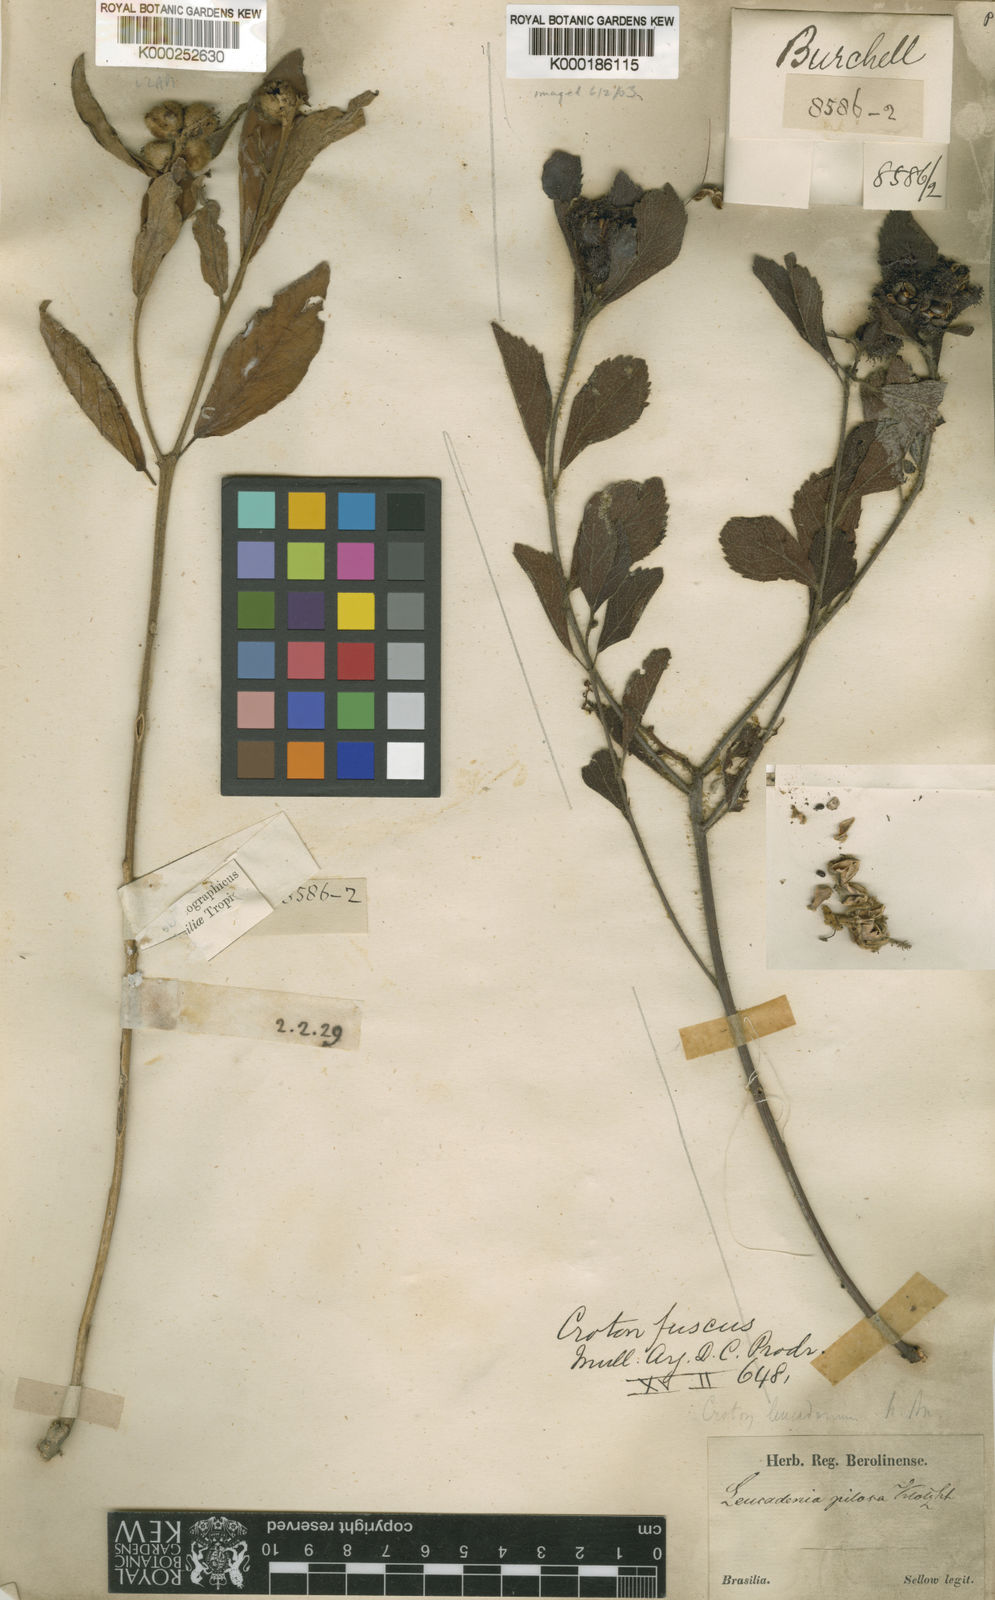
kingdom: Plantae
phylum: Tracheophyta
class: Magnoliopsida
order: Malpighiales
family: Euphorbiaceae
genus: Croton
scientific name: Croton
